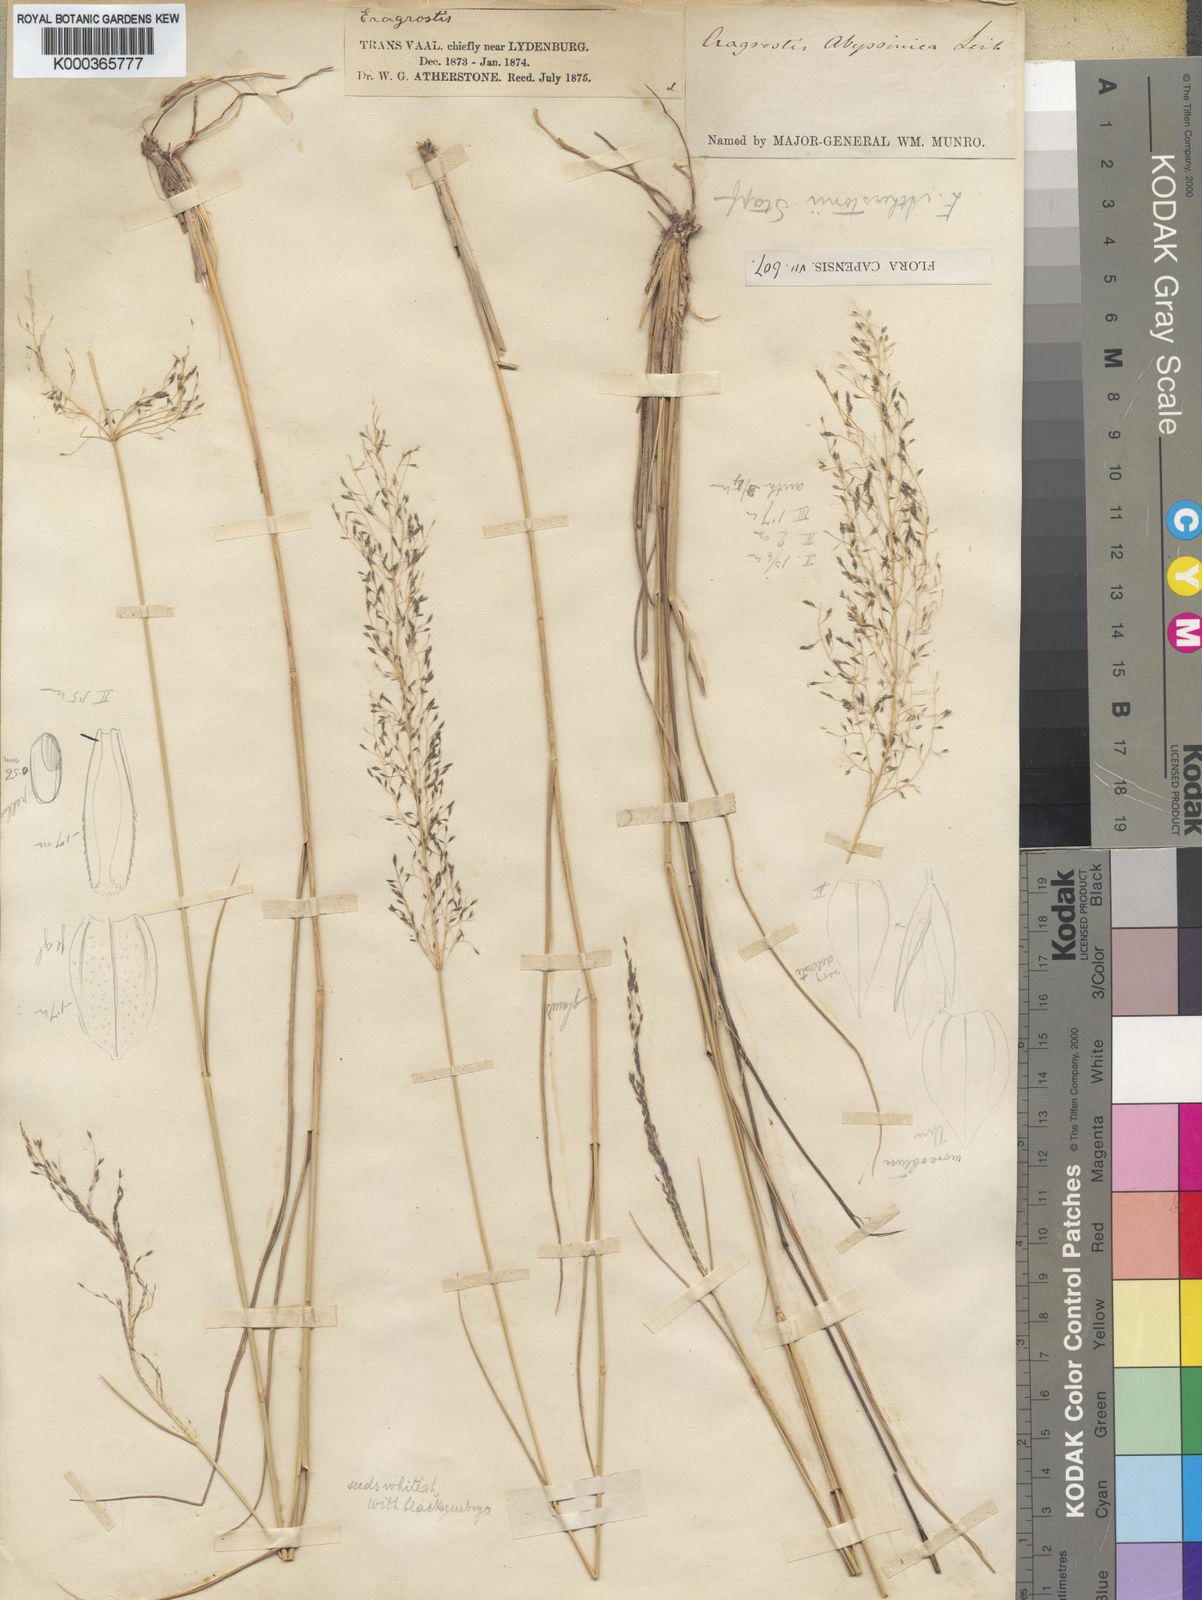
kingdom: Plantae
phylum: Tracheophyta
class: Liliopsida
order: Poales
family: Poaceae
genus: Eragrostis
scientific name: Eragrostis cylindriflora
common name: Cylinderflower lovegrass
